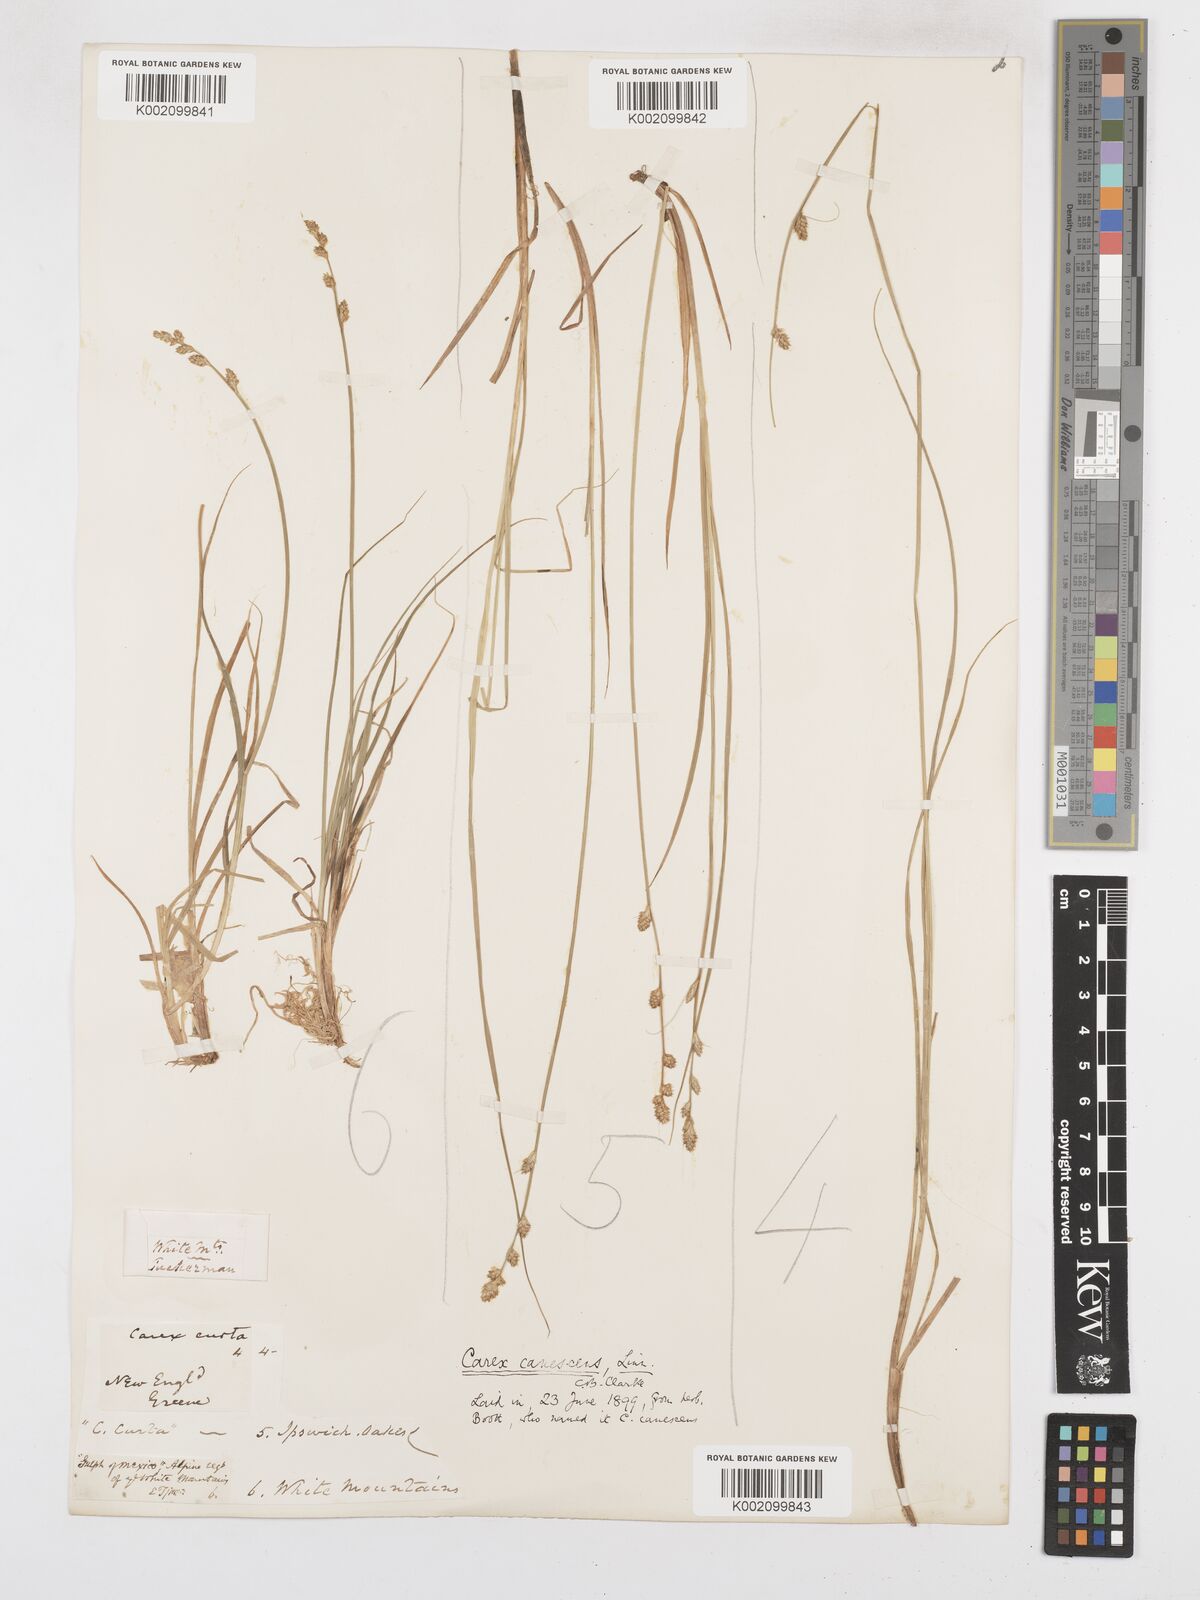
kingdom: Plantae
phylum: Tracheophyta
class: Liliopsida
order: Poales
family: Cyperaceae
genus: Carex
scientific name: Carex curta
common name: White sedge
